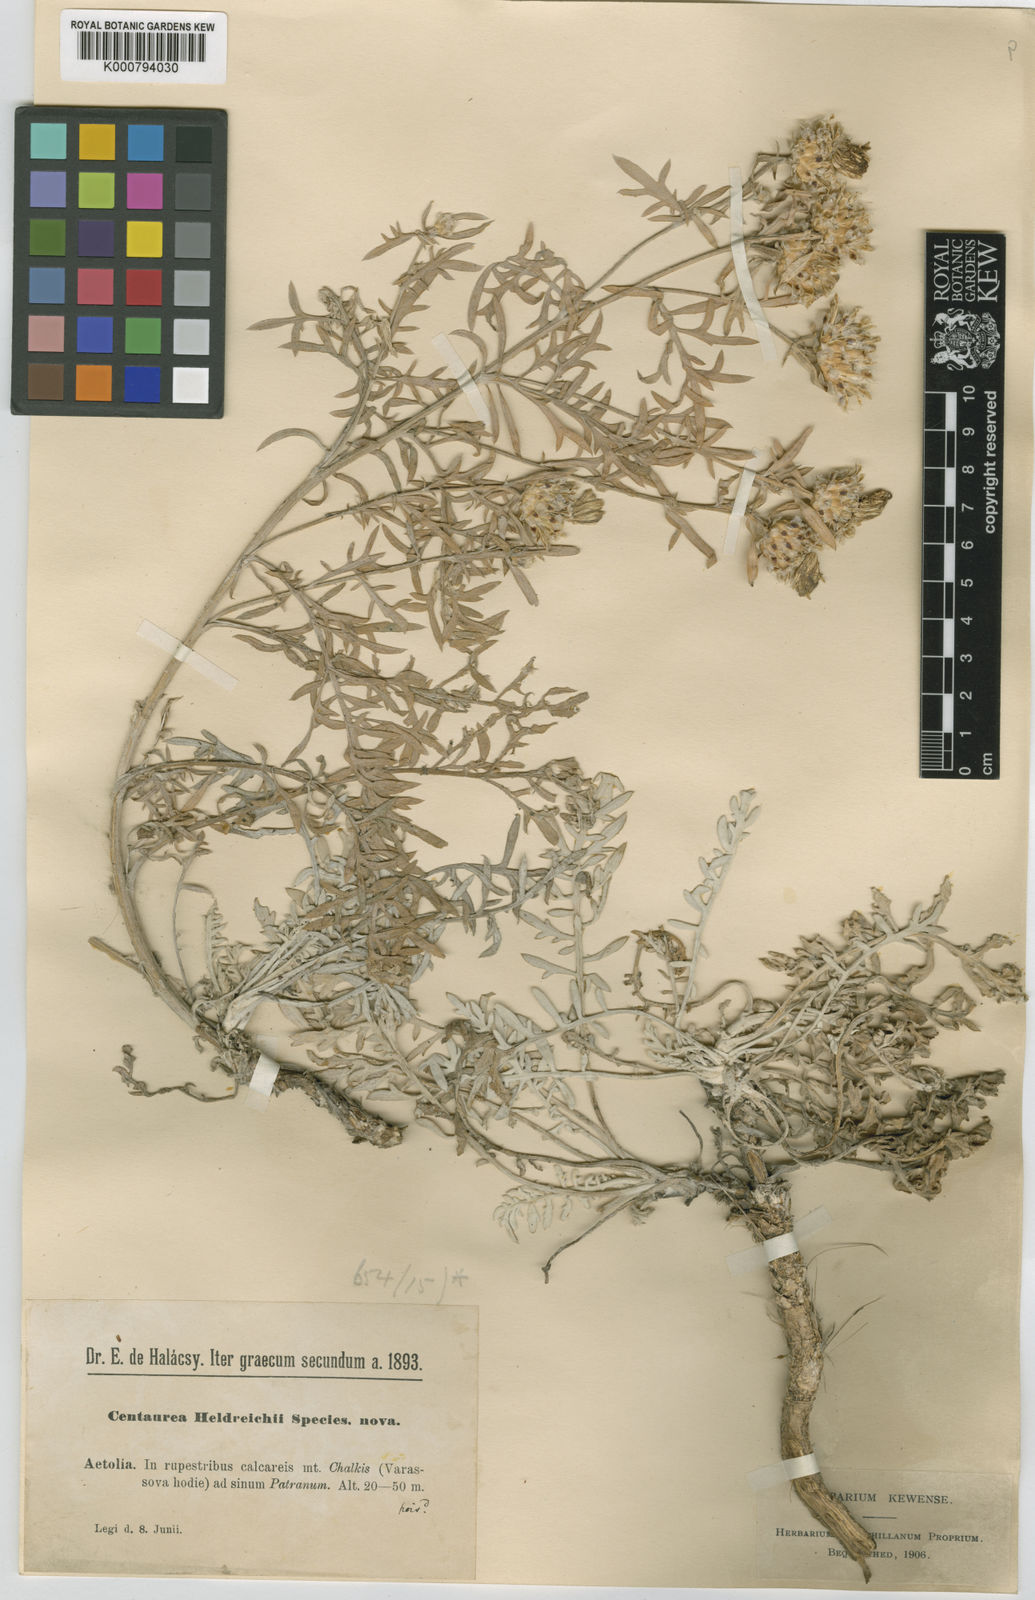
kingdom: Plantae
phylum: Tracheophyta
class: Magnoliopsida
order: Asterales
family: Asteraceae
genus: Centaurea
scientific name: Centaurea alba
